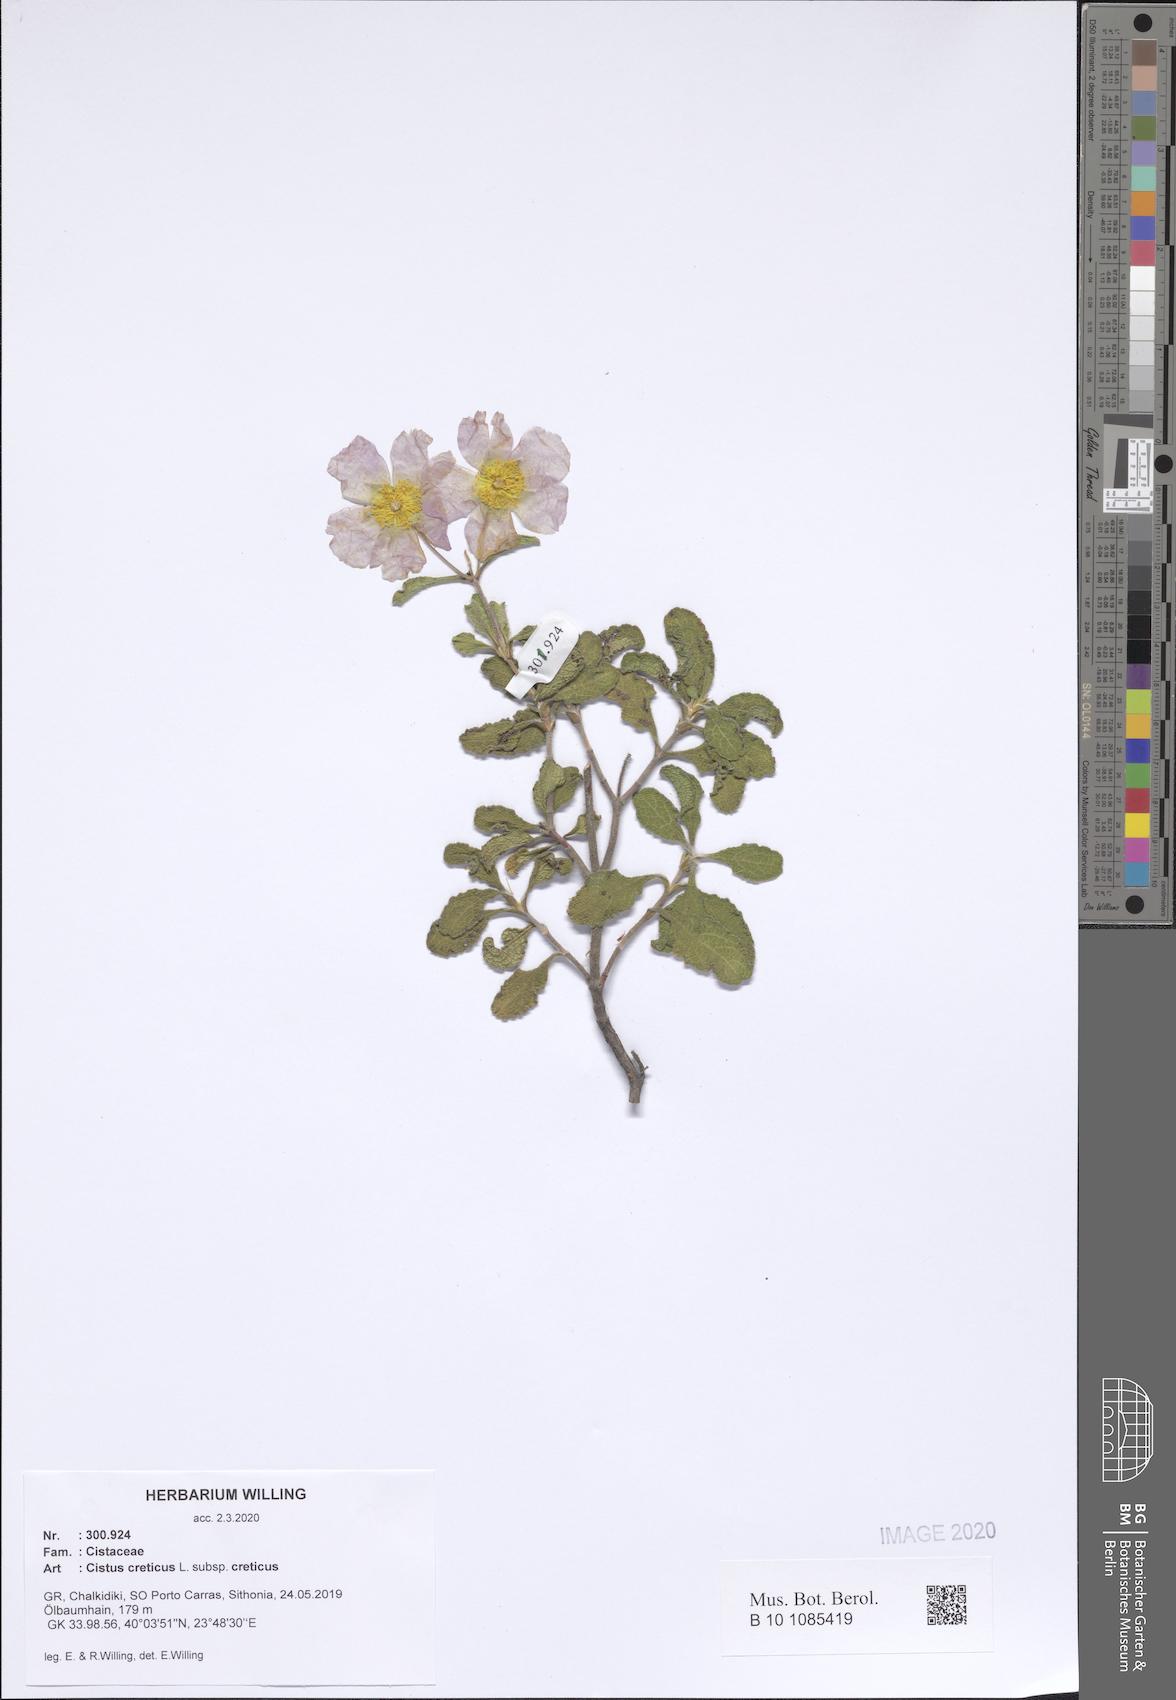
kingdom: Plantae
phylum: Tracheophyta
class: Magnoliopsida
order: Malvales
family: Cistaceae
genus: Cistus
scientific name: Cistus creticus
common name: Cretan rockrose
